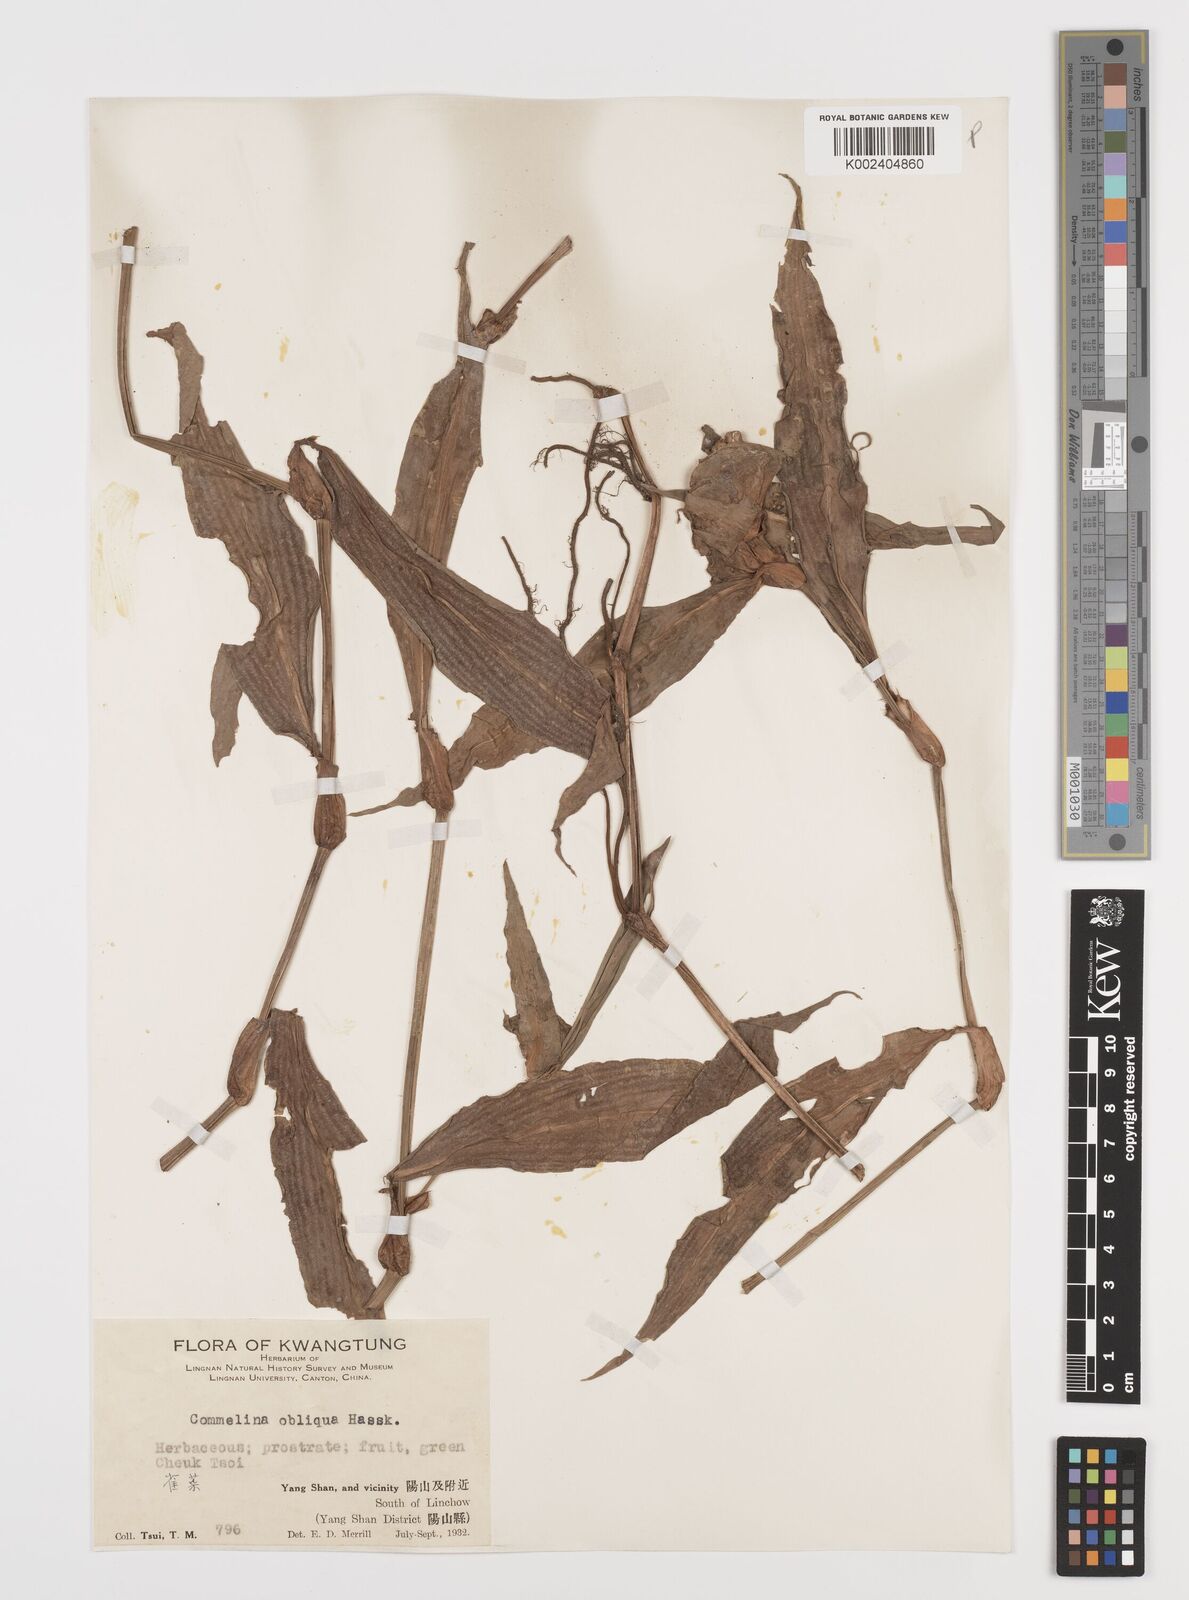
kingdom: Plantae
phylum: Tracheophyta
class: Liliopsida
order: Commelinales
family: Commelinaceae
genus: Commelina
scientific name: Commelina obliqua
